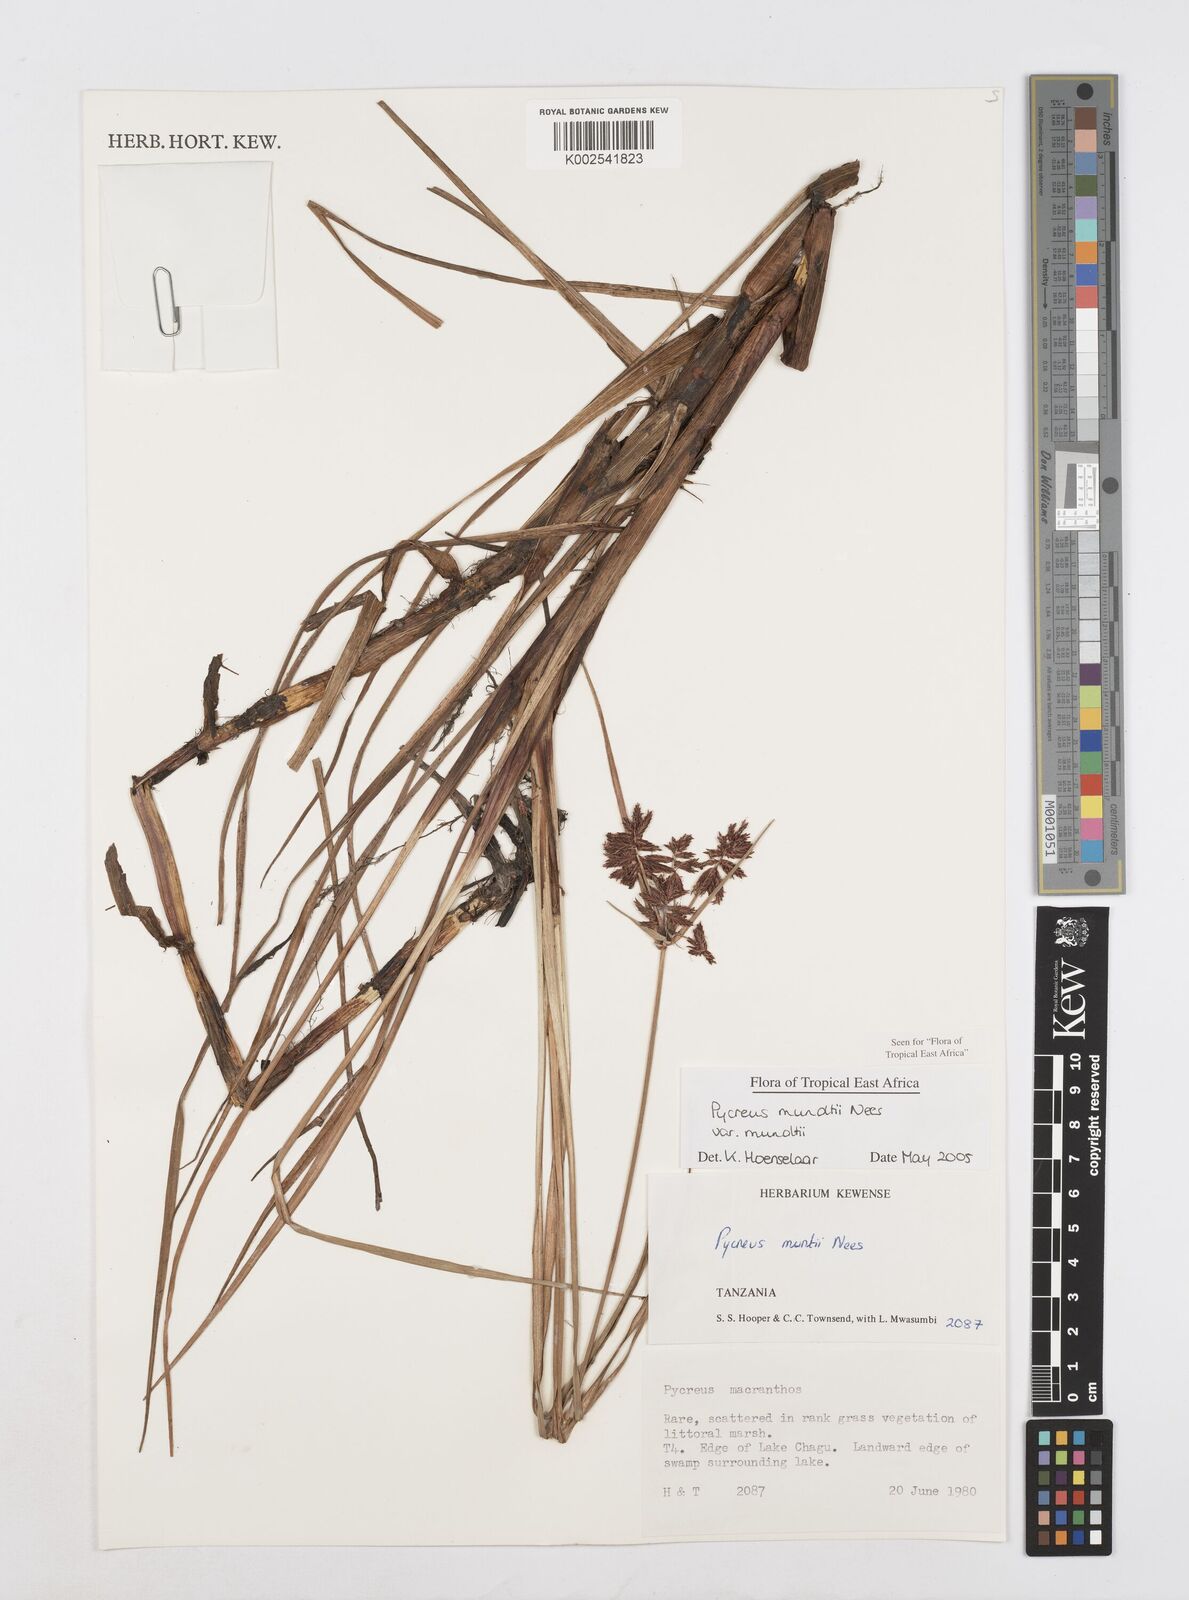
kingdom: Plantae
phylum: Tracheophyta
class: Liliopsida
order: Poales
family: Cyperaceae
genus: Cyperus
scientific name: Cyperus mundii
